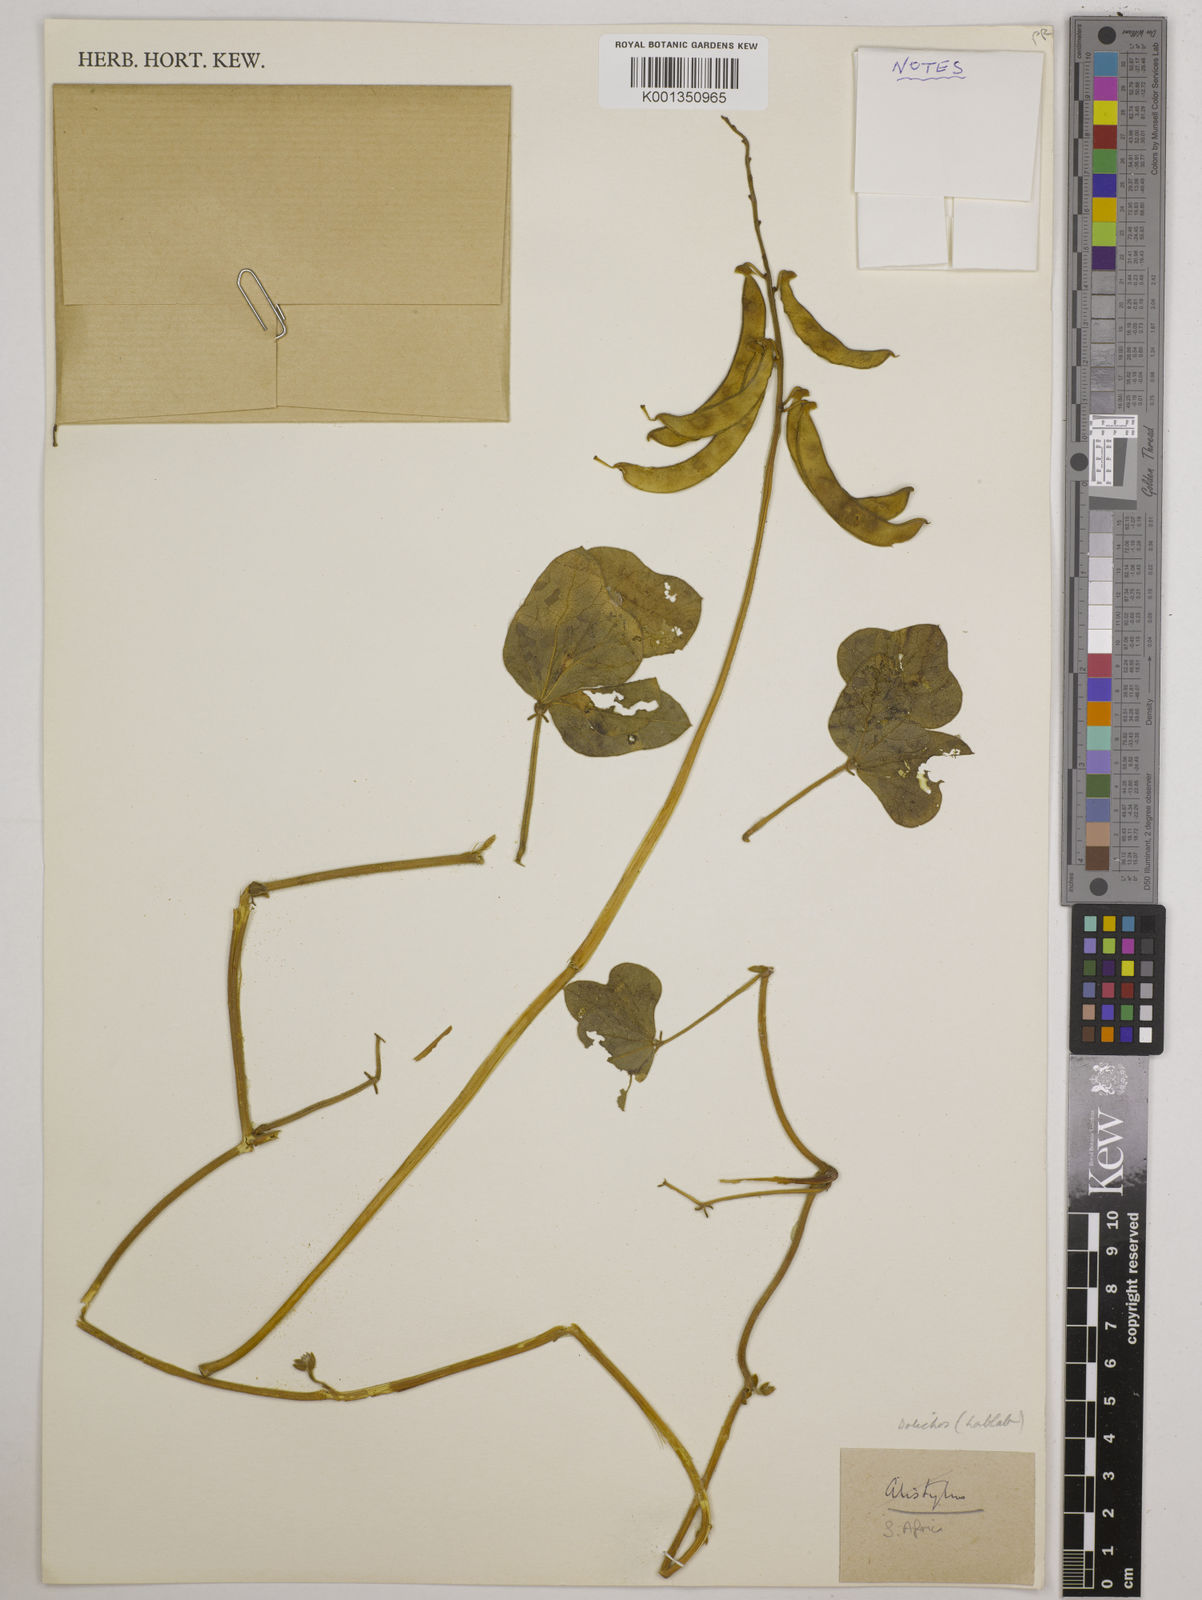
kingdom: Plantae
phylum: Tracheophyta
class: Magnoliopsida
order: Fabales
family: Fabaceae
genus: Dolichos
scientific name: Dolichos
